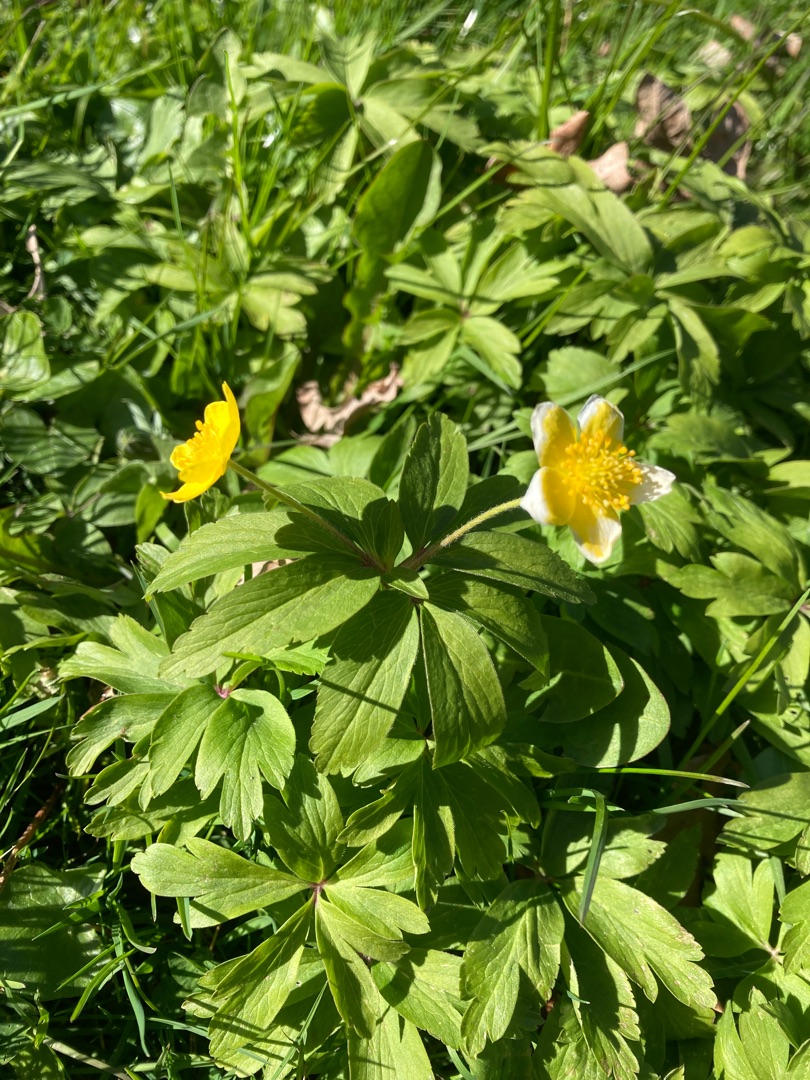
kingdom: Plantae
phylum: Tracheophyta
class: Magnoliopsida
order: Ranunculales
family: Ranunculaceae
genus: Anemone
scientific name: Anemone ranunculoides
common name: Gul anemone
